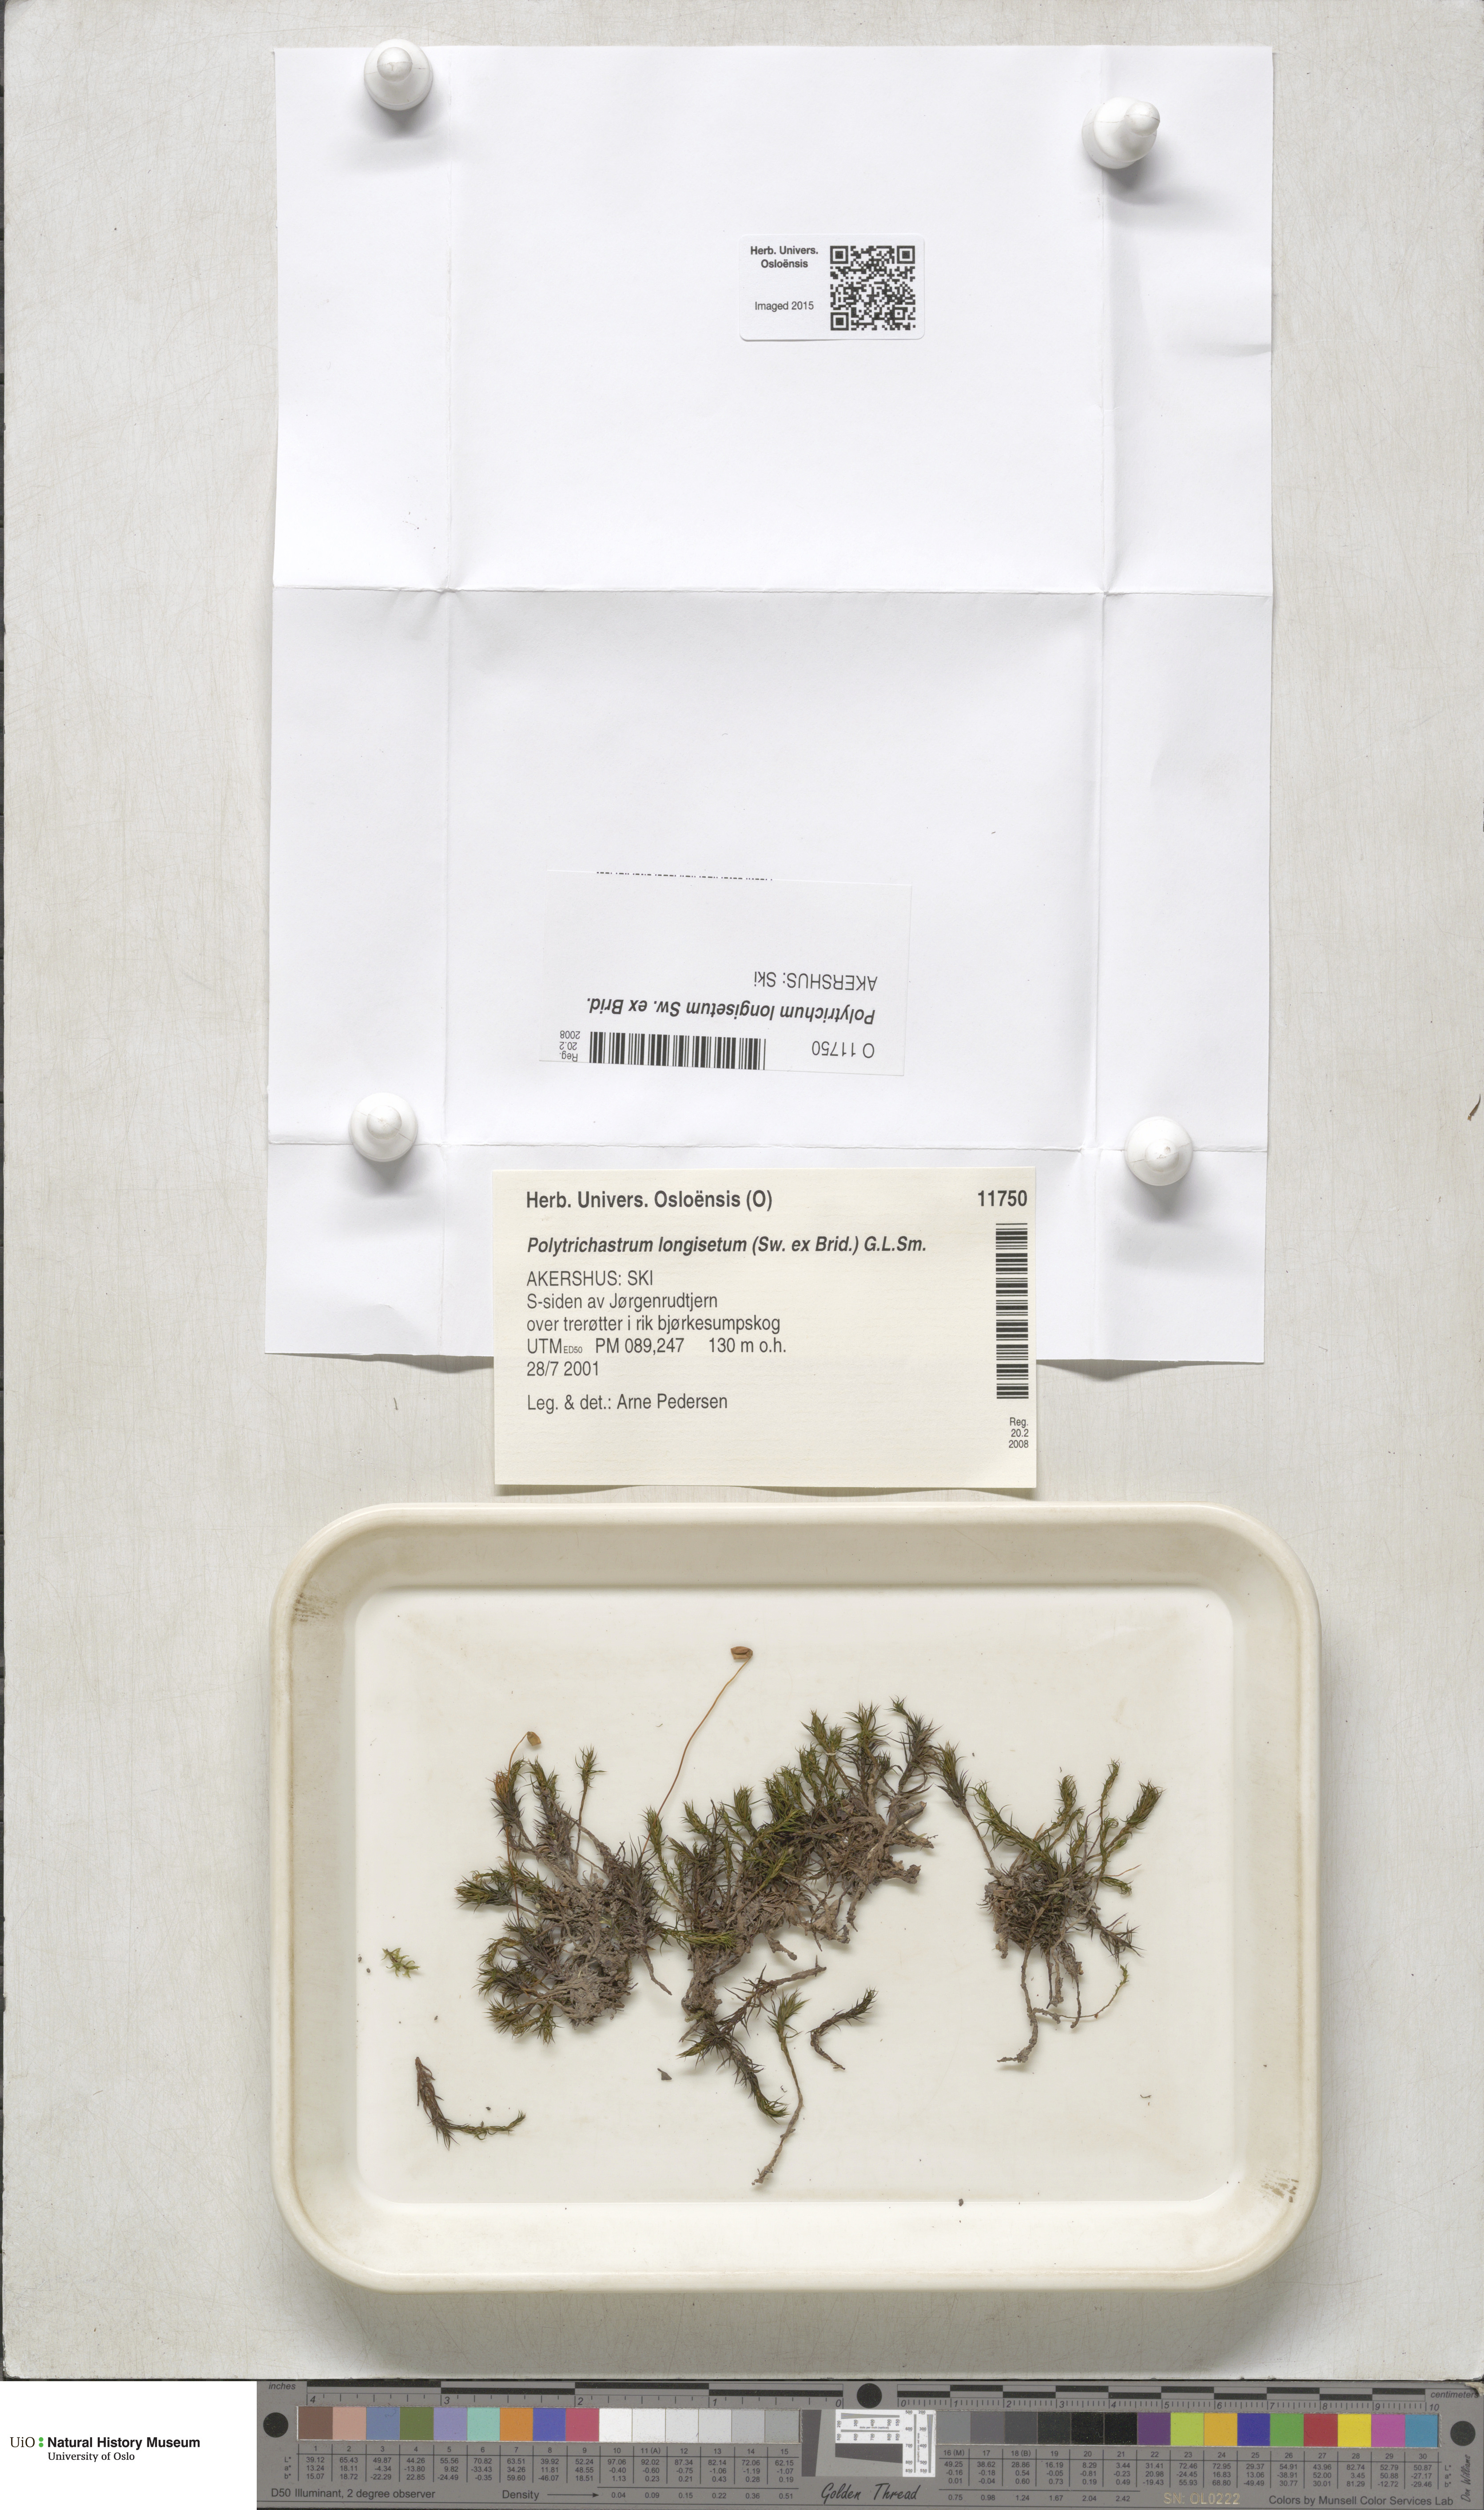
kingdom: Plantae
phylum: Bryophyta
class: Polytrichopsida
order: Polytrichales
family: Polytrichaceae
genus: Polytrichum
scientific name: Polytrichum longisetum
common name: Long-stalked haircap moss
